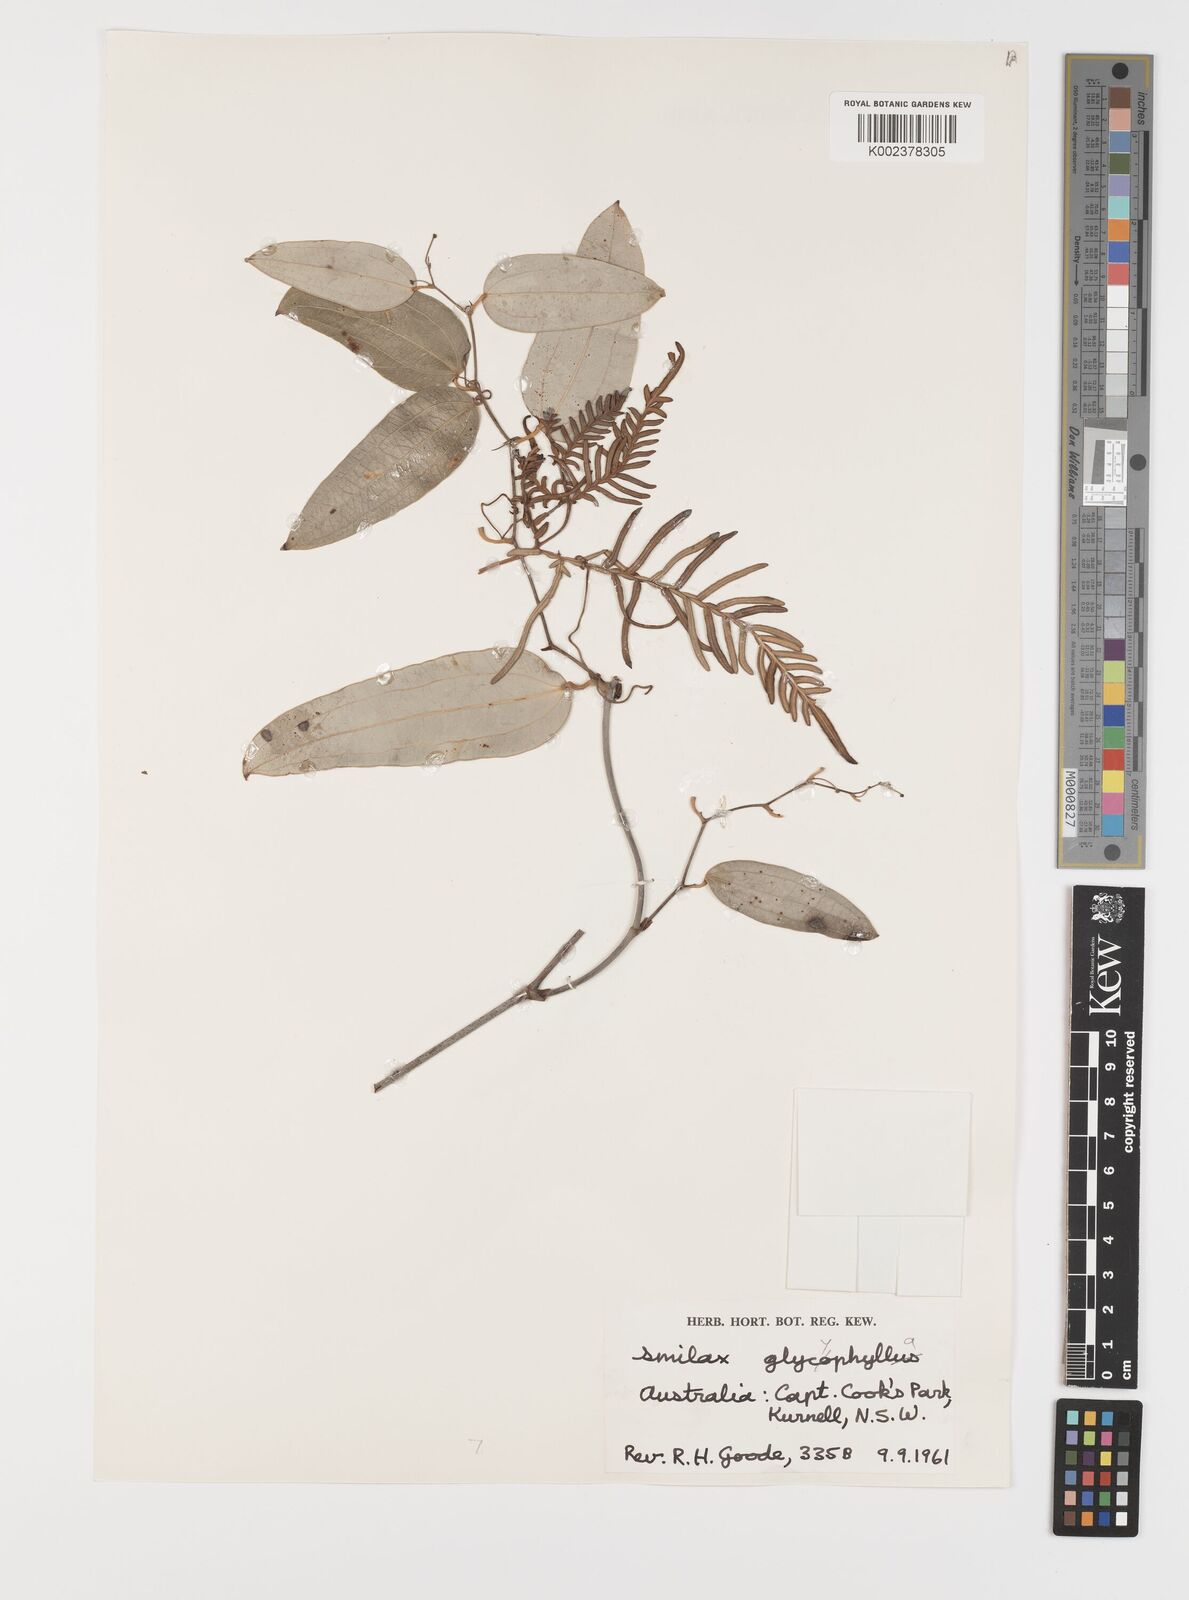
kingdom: Plantae
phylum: Tracheophyta
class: Liliopsida
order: Liliales
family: Smilacaceae
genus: Smilax
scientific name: Smilax leucophylla
